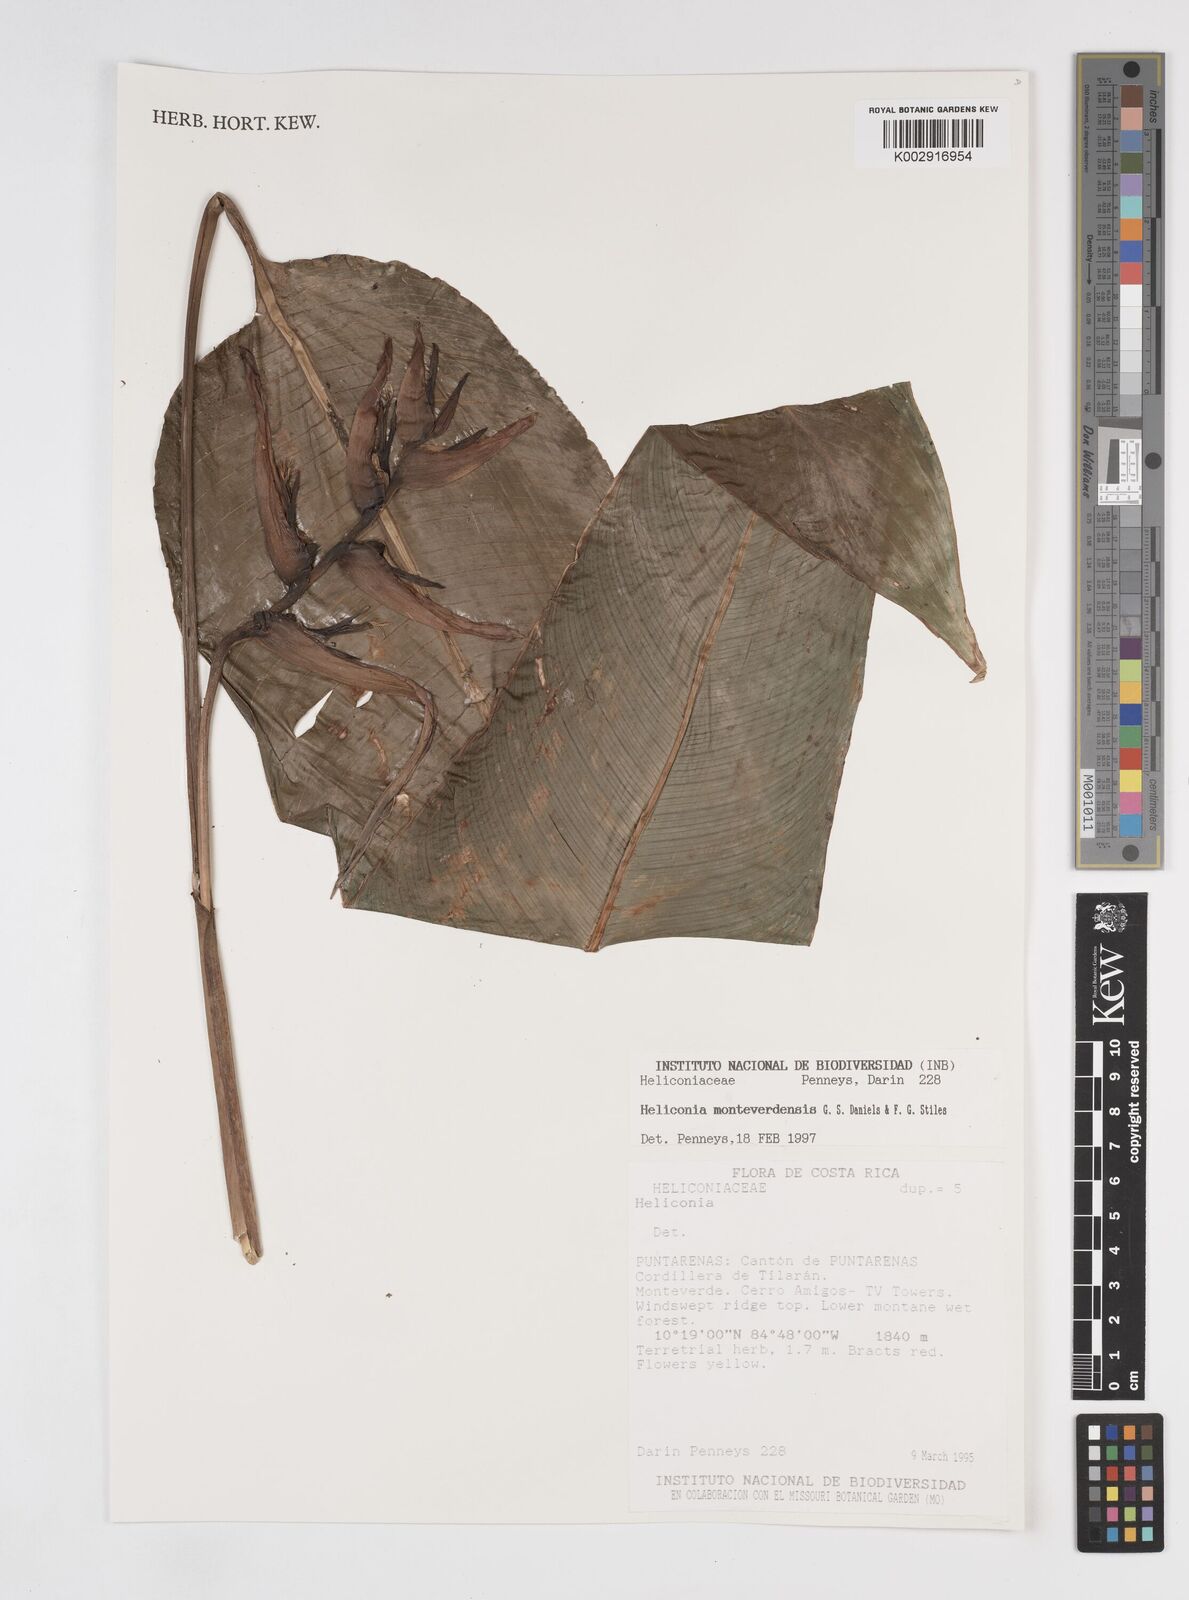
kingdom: Plantae
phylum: Tracheophyta
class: Liliopsida
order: Zingiberales
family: Heliconiaceae
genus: Heliconia
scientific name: Heliconia monteverdensis
